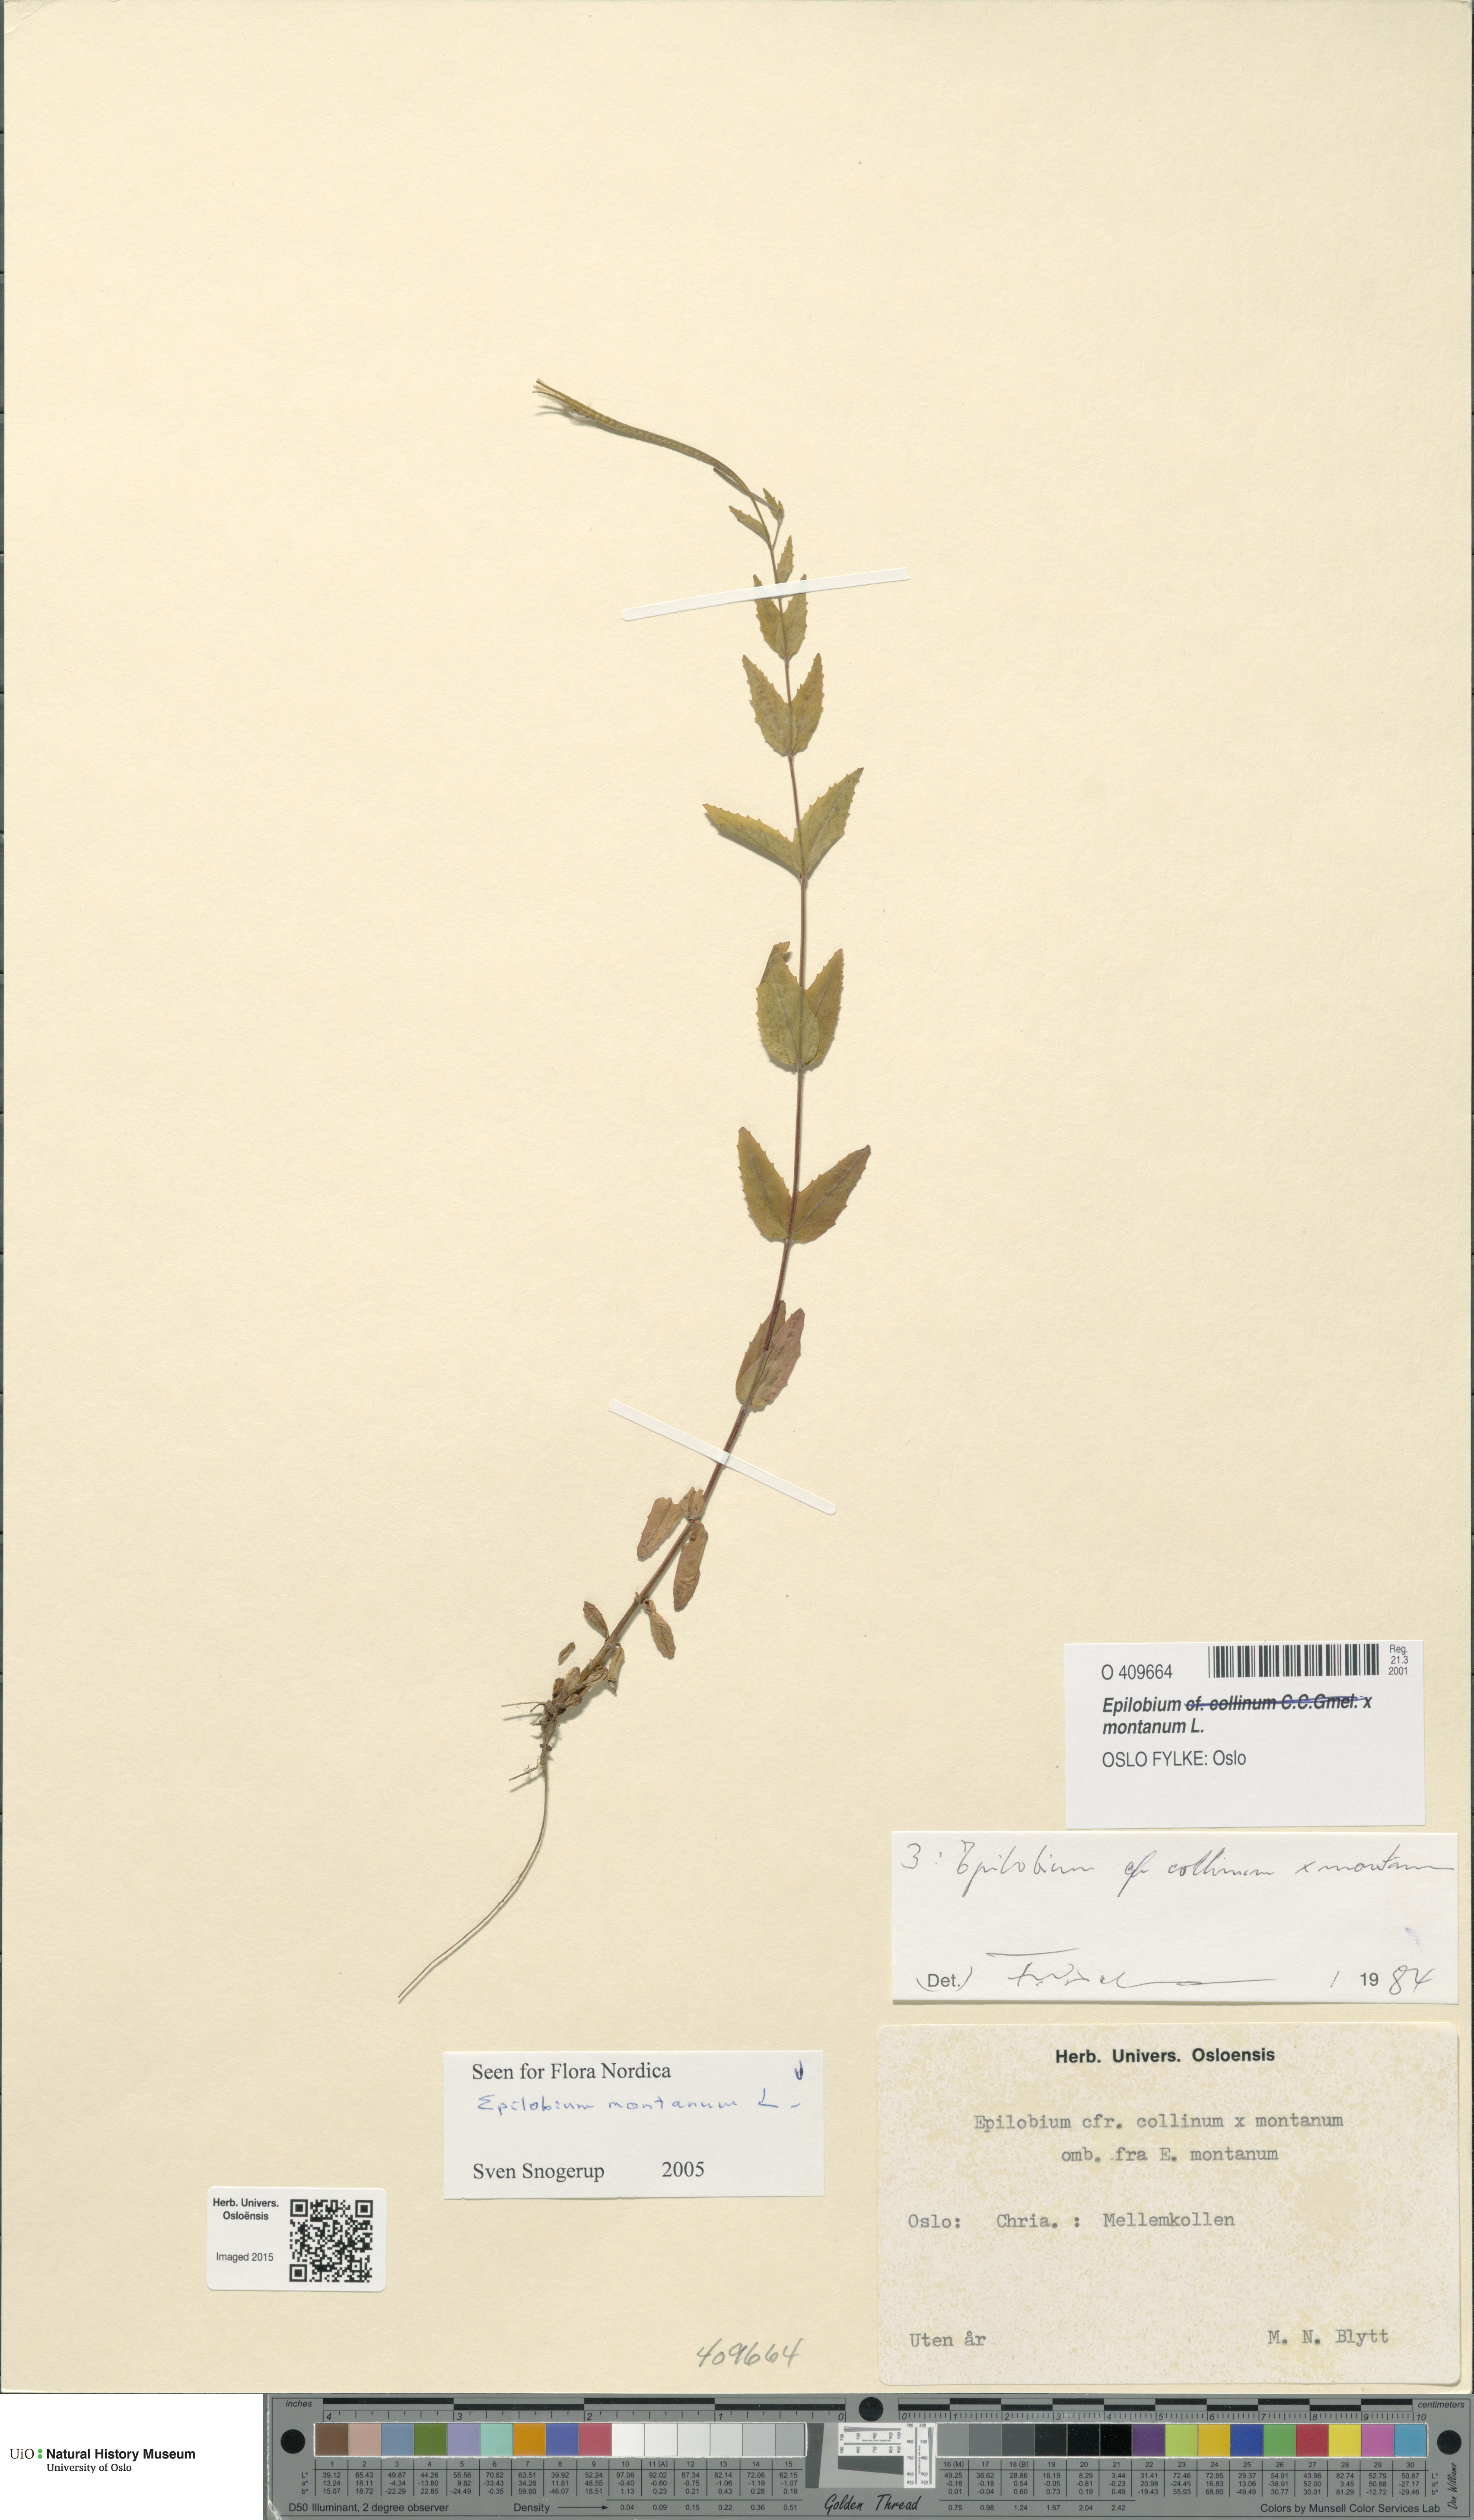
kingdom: Plantae
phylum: Tracheophyta
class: Magnoliopsida
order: Myrtales
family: Onagraceae
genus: Epilobium
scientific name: Epilobium montanum
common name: Broad-leaved willowherb
